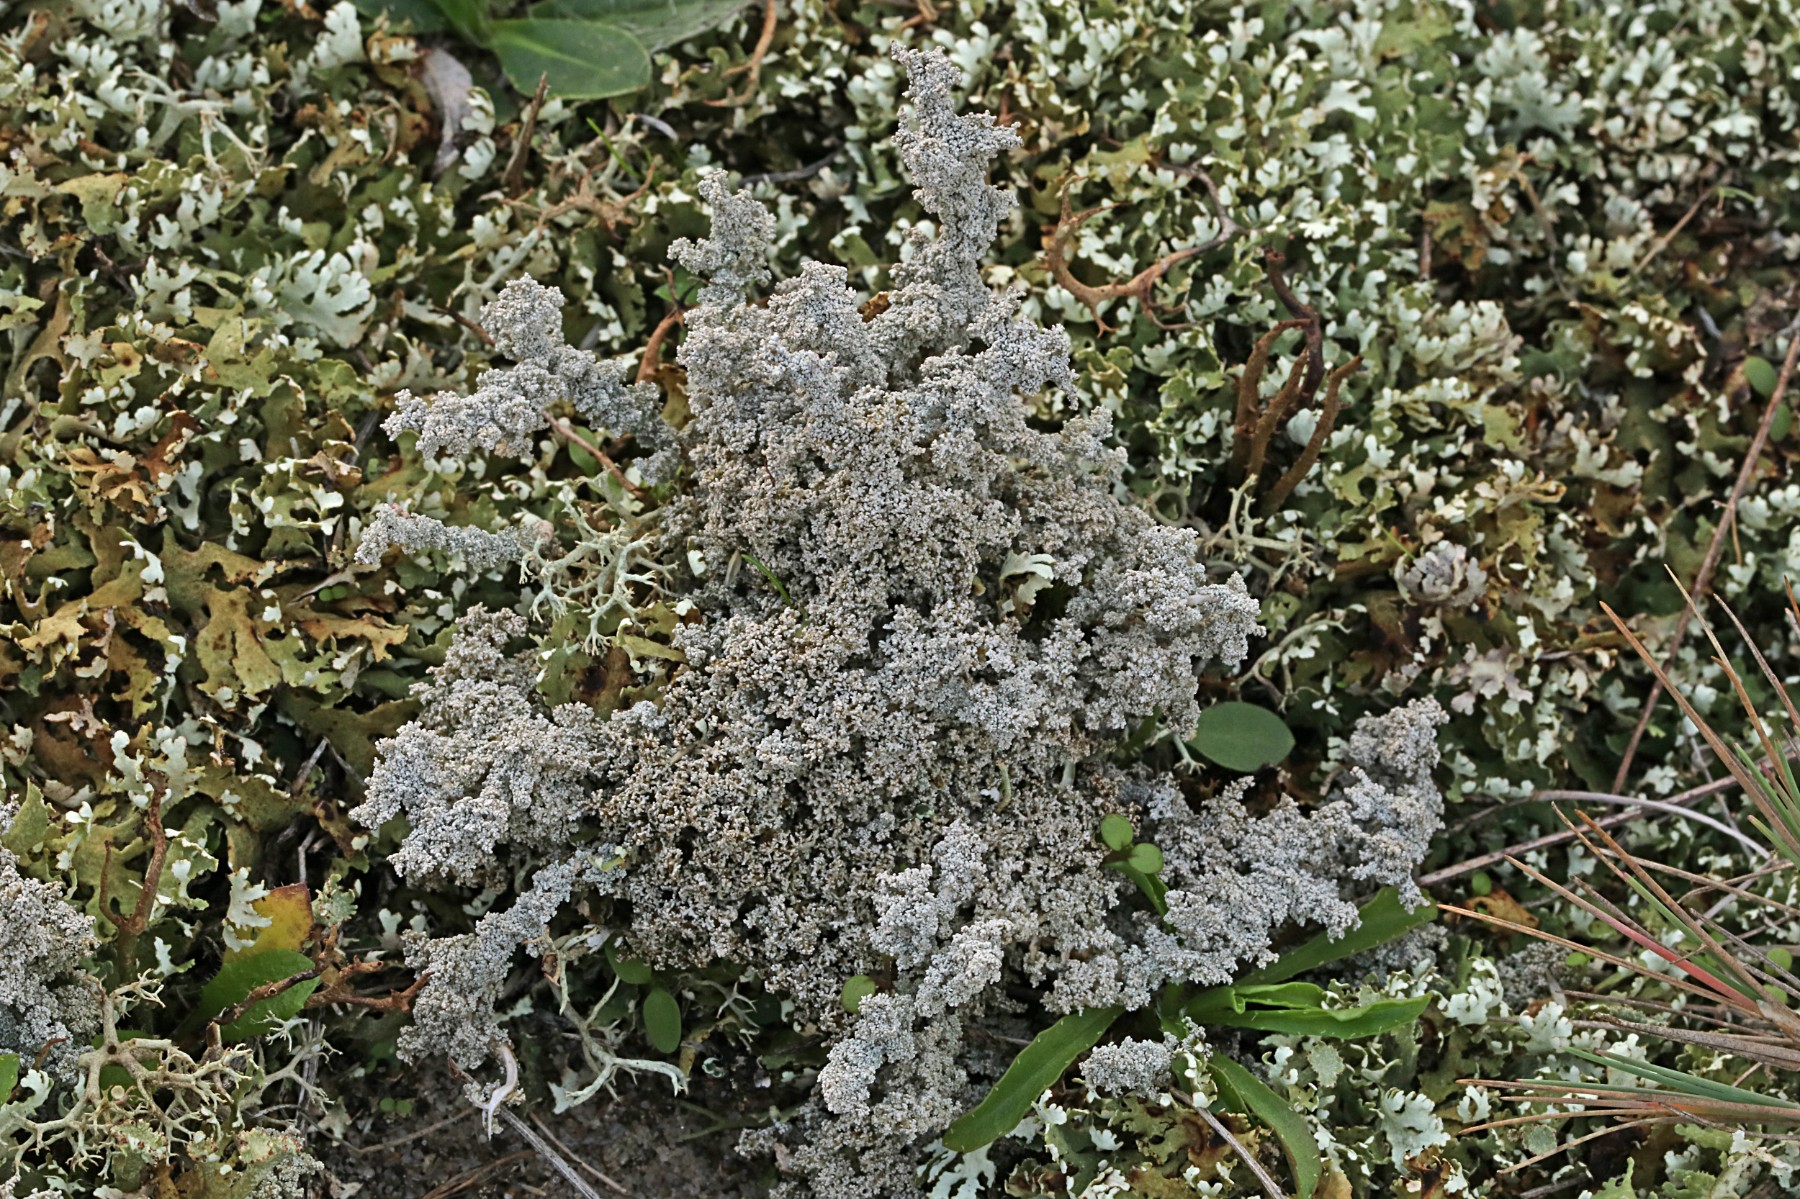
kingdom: Fungi
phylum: Ascomycota
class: Lecanoromycetes
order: Lecanorales
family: Stereocaulaceae
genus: Stereocaulon
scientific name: Stereocaulon paschale
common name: rank korallav
